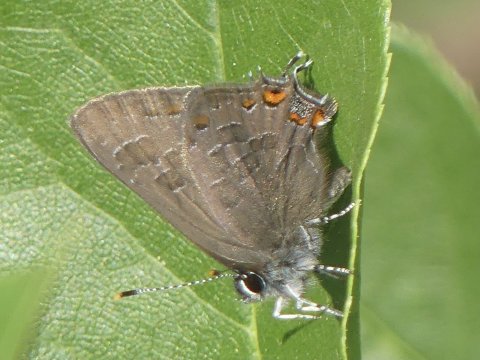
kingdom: Animalia
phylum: Arthropoda
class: Insecta
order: Lepidoptera
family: Lycaenidae
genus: Satyrium
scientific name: Satyrium liparops
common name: Striped Hairstreak
